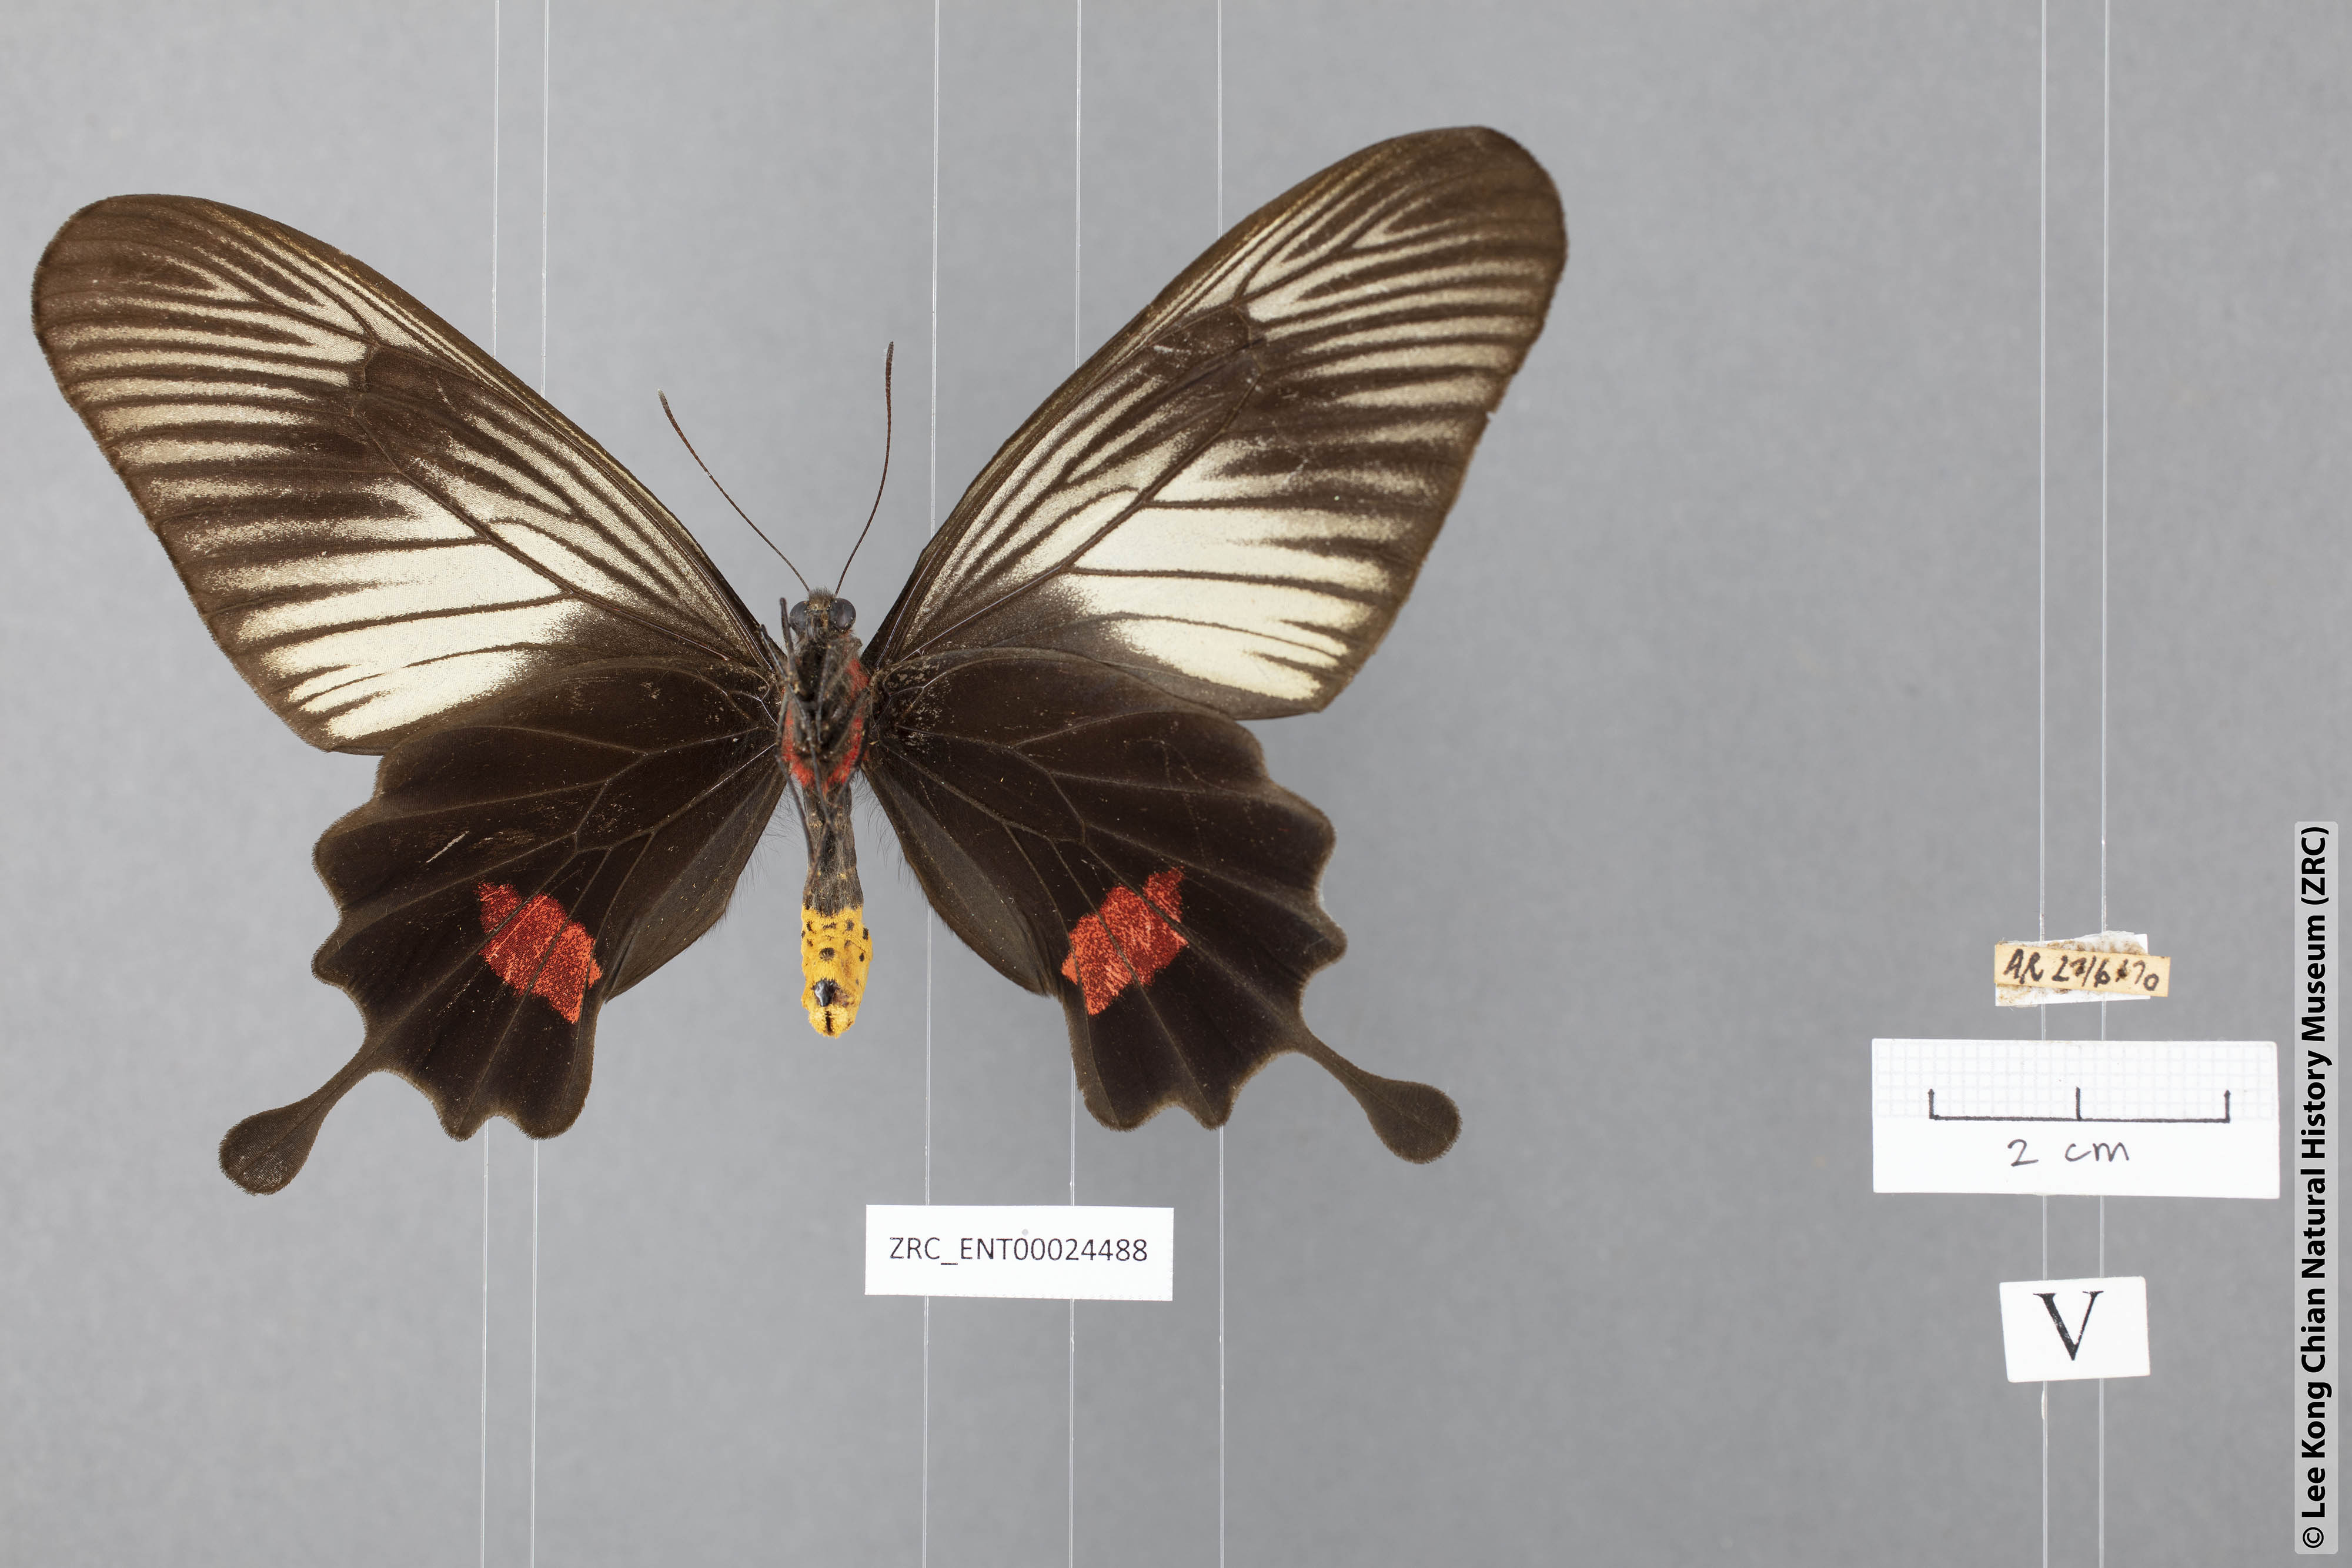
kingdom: Animalia
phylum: Arthropoda
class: Insecta
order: Lepidoptera
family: Papilionidae
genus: Losaria
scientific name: Losaria neptunus
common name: Yellow-bodied clubtail
